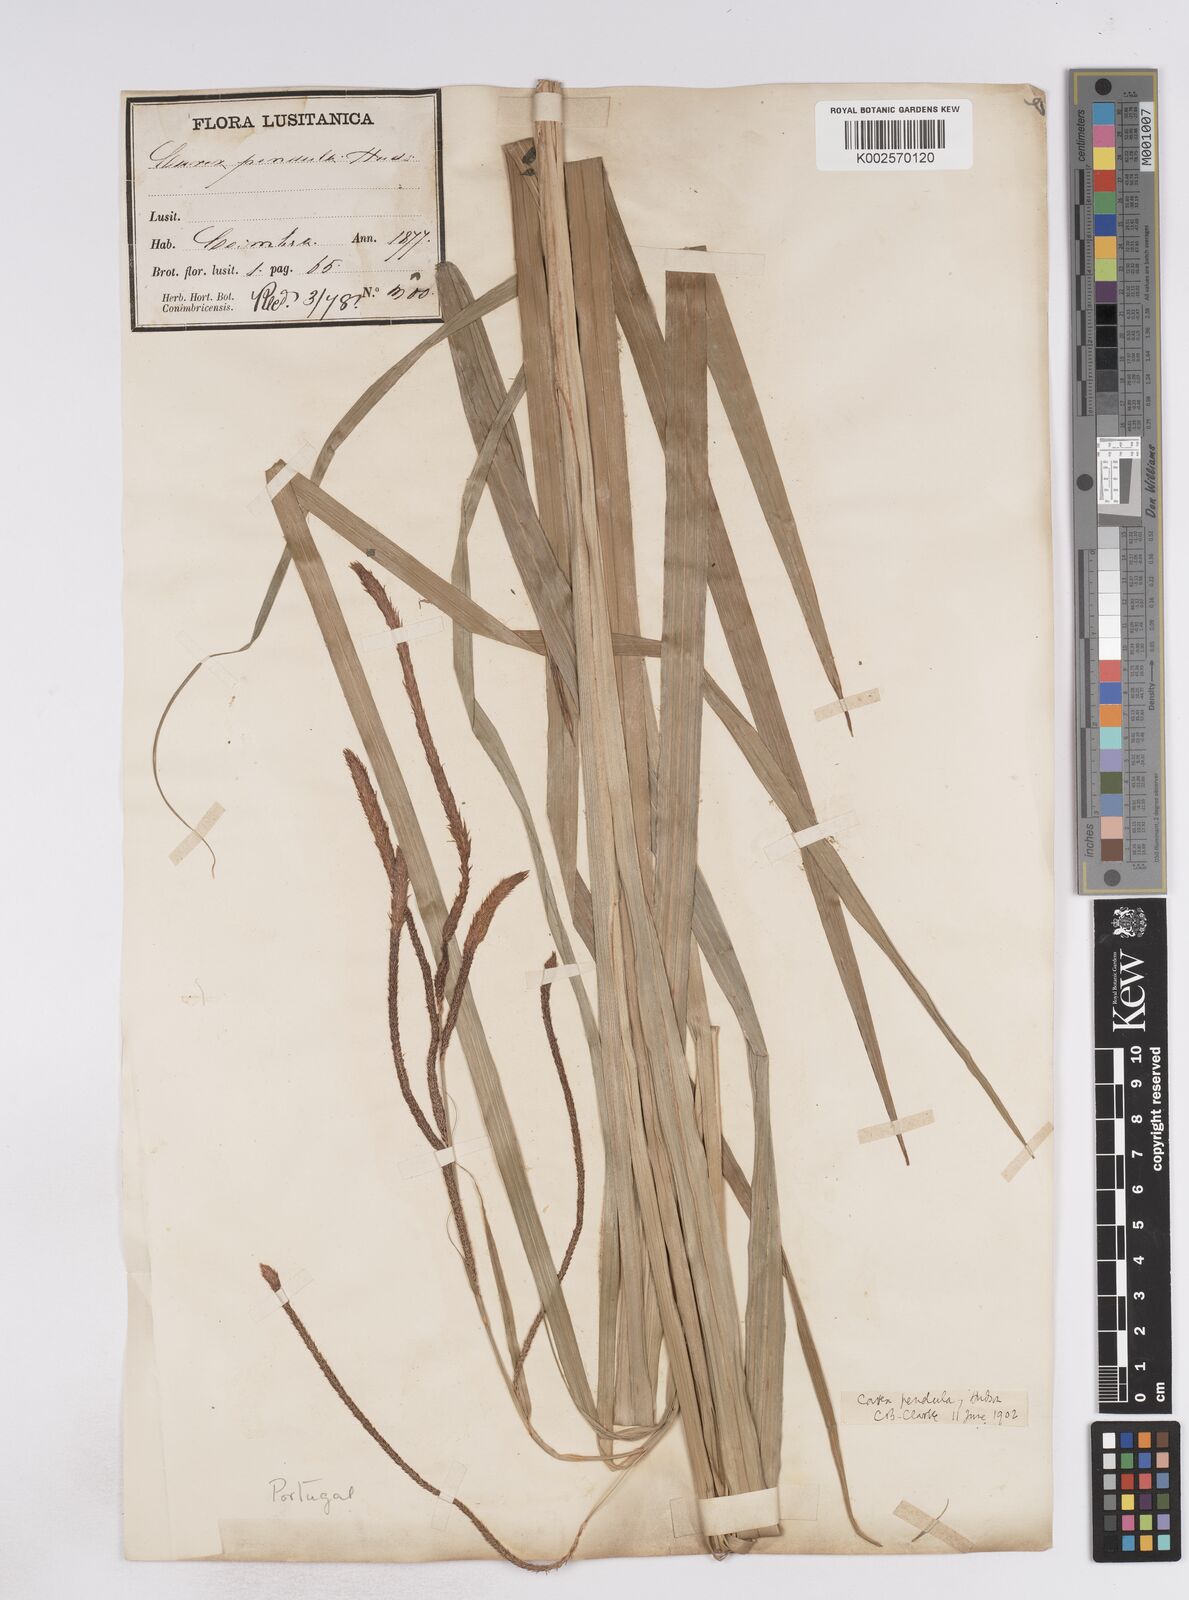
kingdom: Plantae
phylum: Tracheophyta
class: Liliopsida
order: Poales
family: Cyperaceae
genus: Carex
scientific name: Carex pendula
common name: Pendulous sedge
